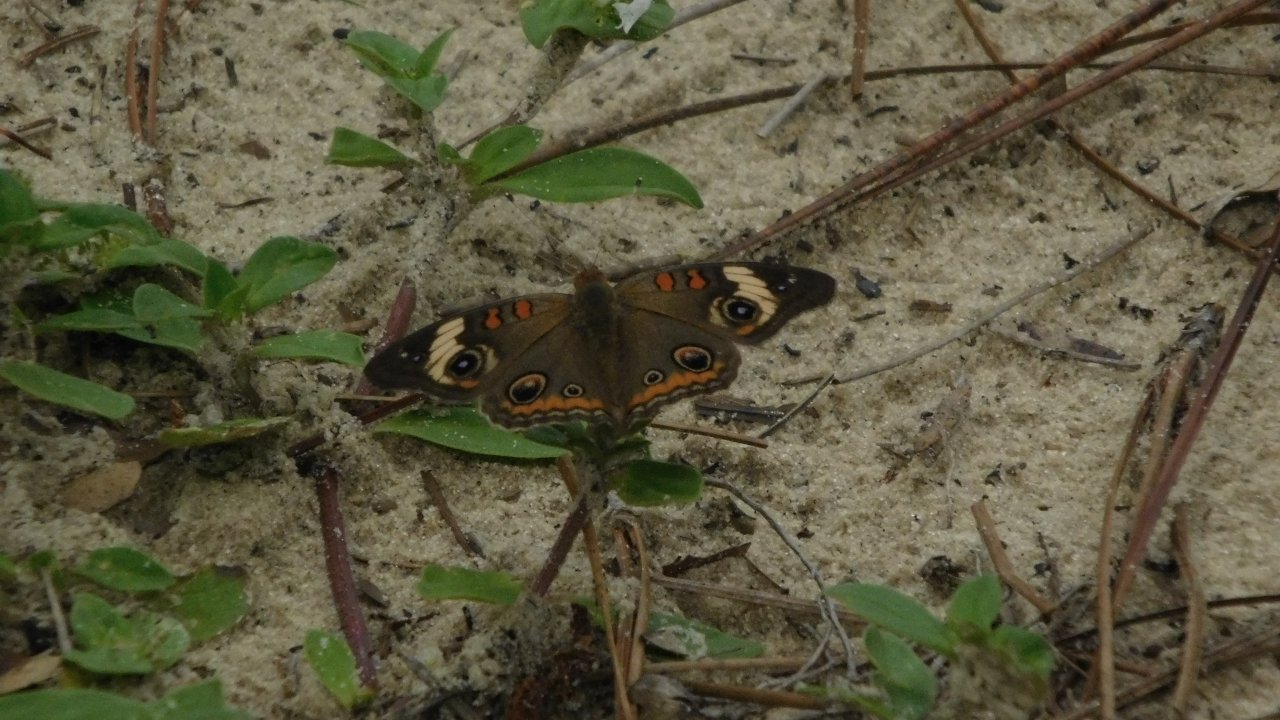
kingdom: Animalia
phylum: Arthropoda
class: Insecta
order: Lepidoptera
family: Nymphalidae
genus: Junonia
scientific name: Junonia coenia
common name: Common Buckeye
